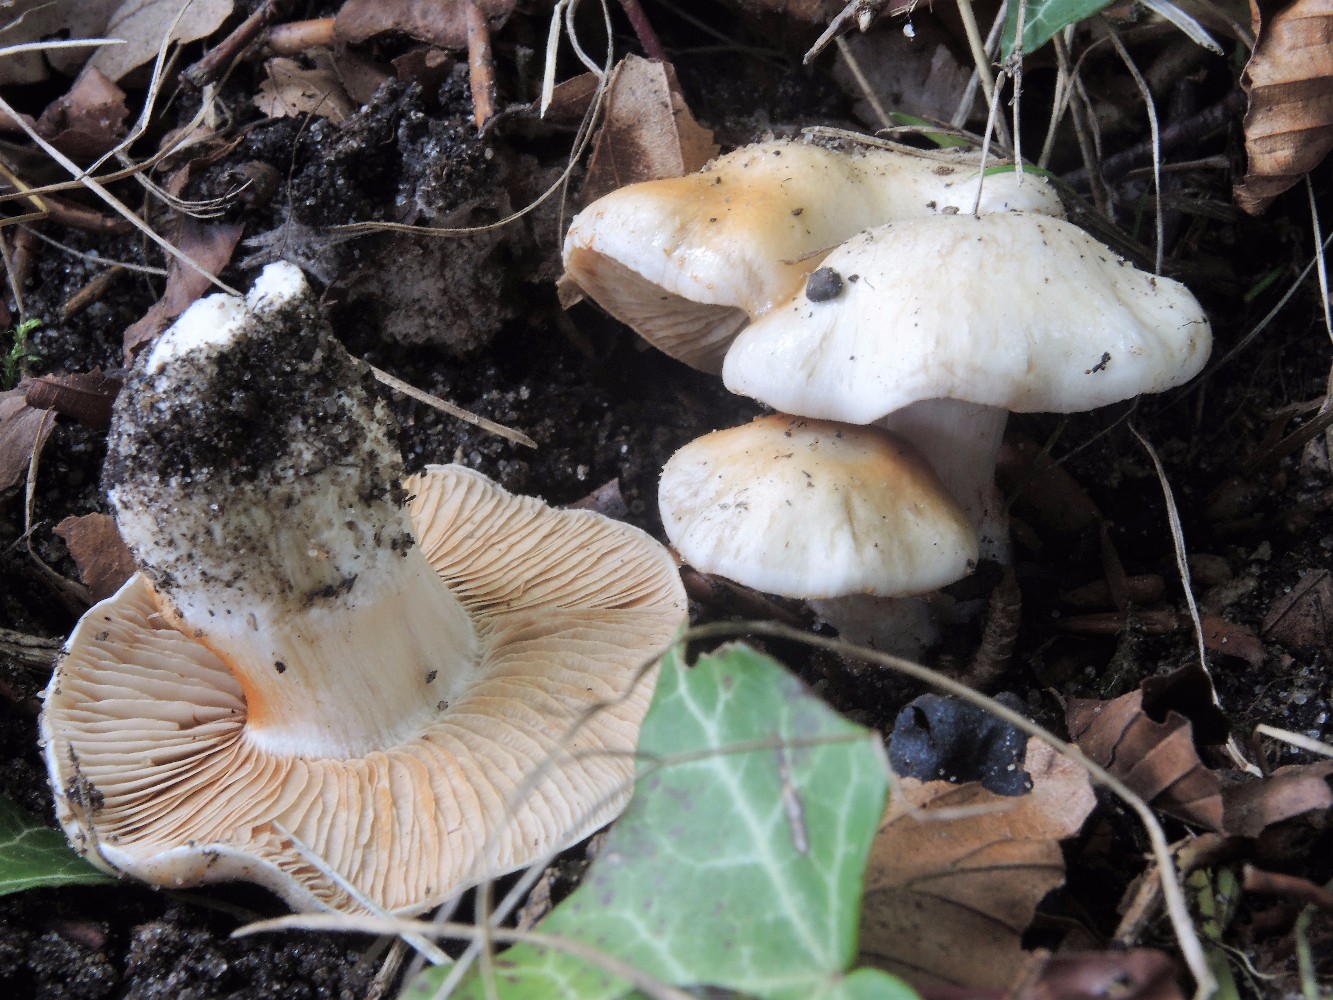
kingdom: Fungi
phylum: Basidiomycota
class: Agaricomycetes
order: Agaricales
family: Cortinariaceae
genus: Thaxterogaster
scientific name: Thaxterogaster barbatus
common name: elfenbens-slørhat
